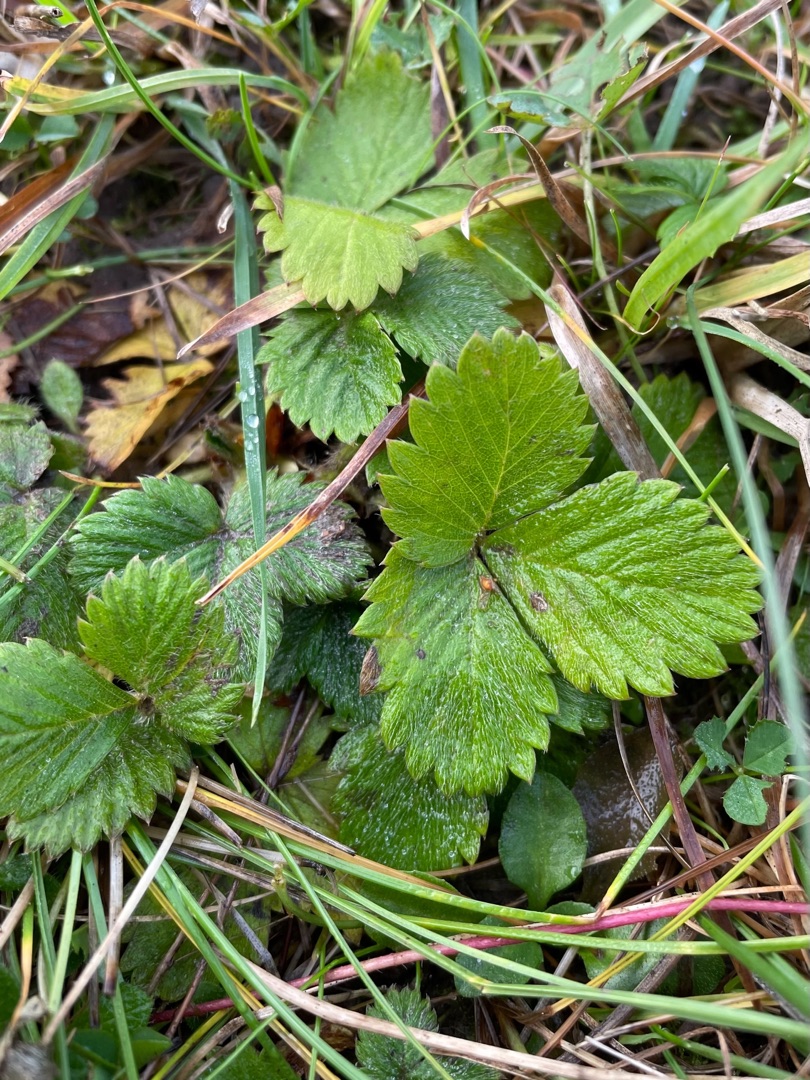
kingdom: Plantae
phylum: Tracheophyta
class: Magnoliopsida
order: Rosales
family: Rosaceae
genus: Fragaria
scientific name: Fragaria viridis
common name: Bakke-jordbær
